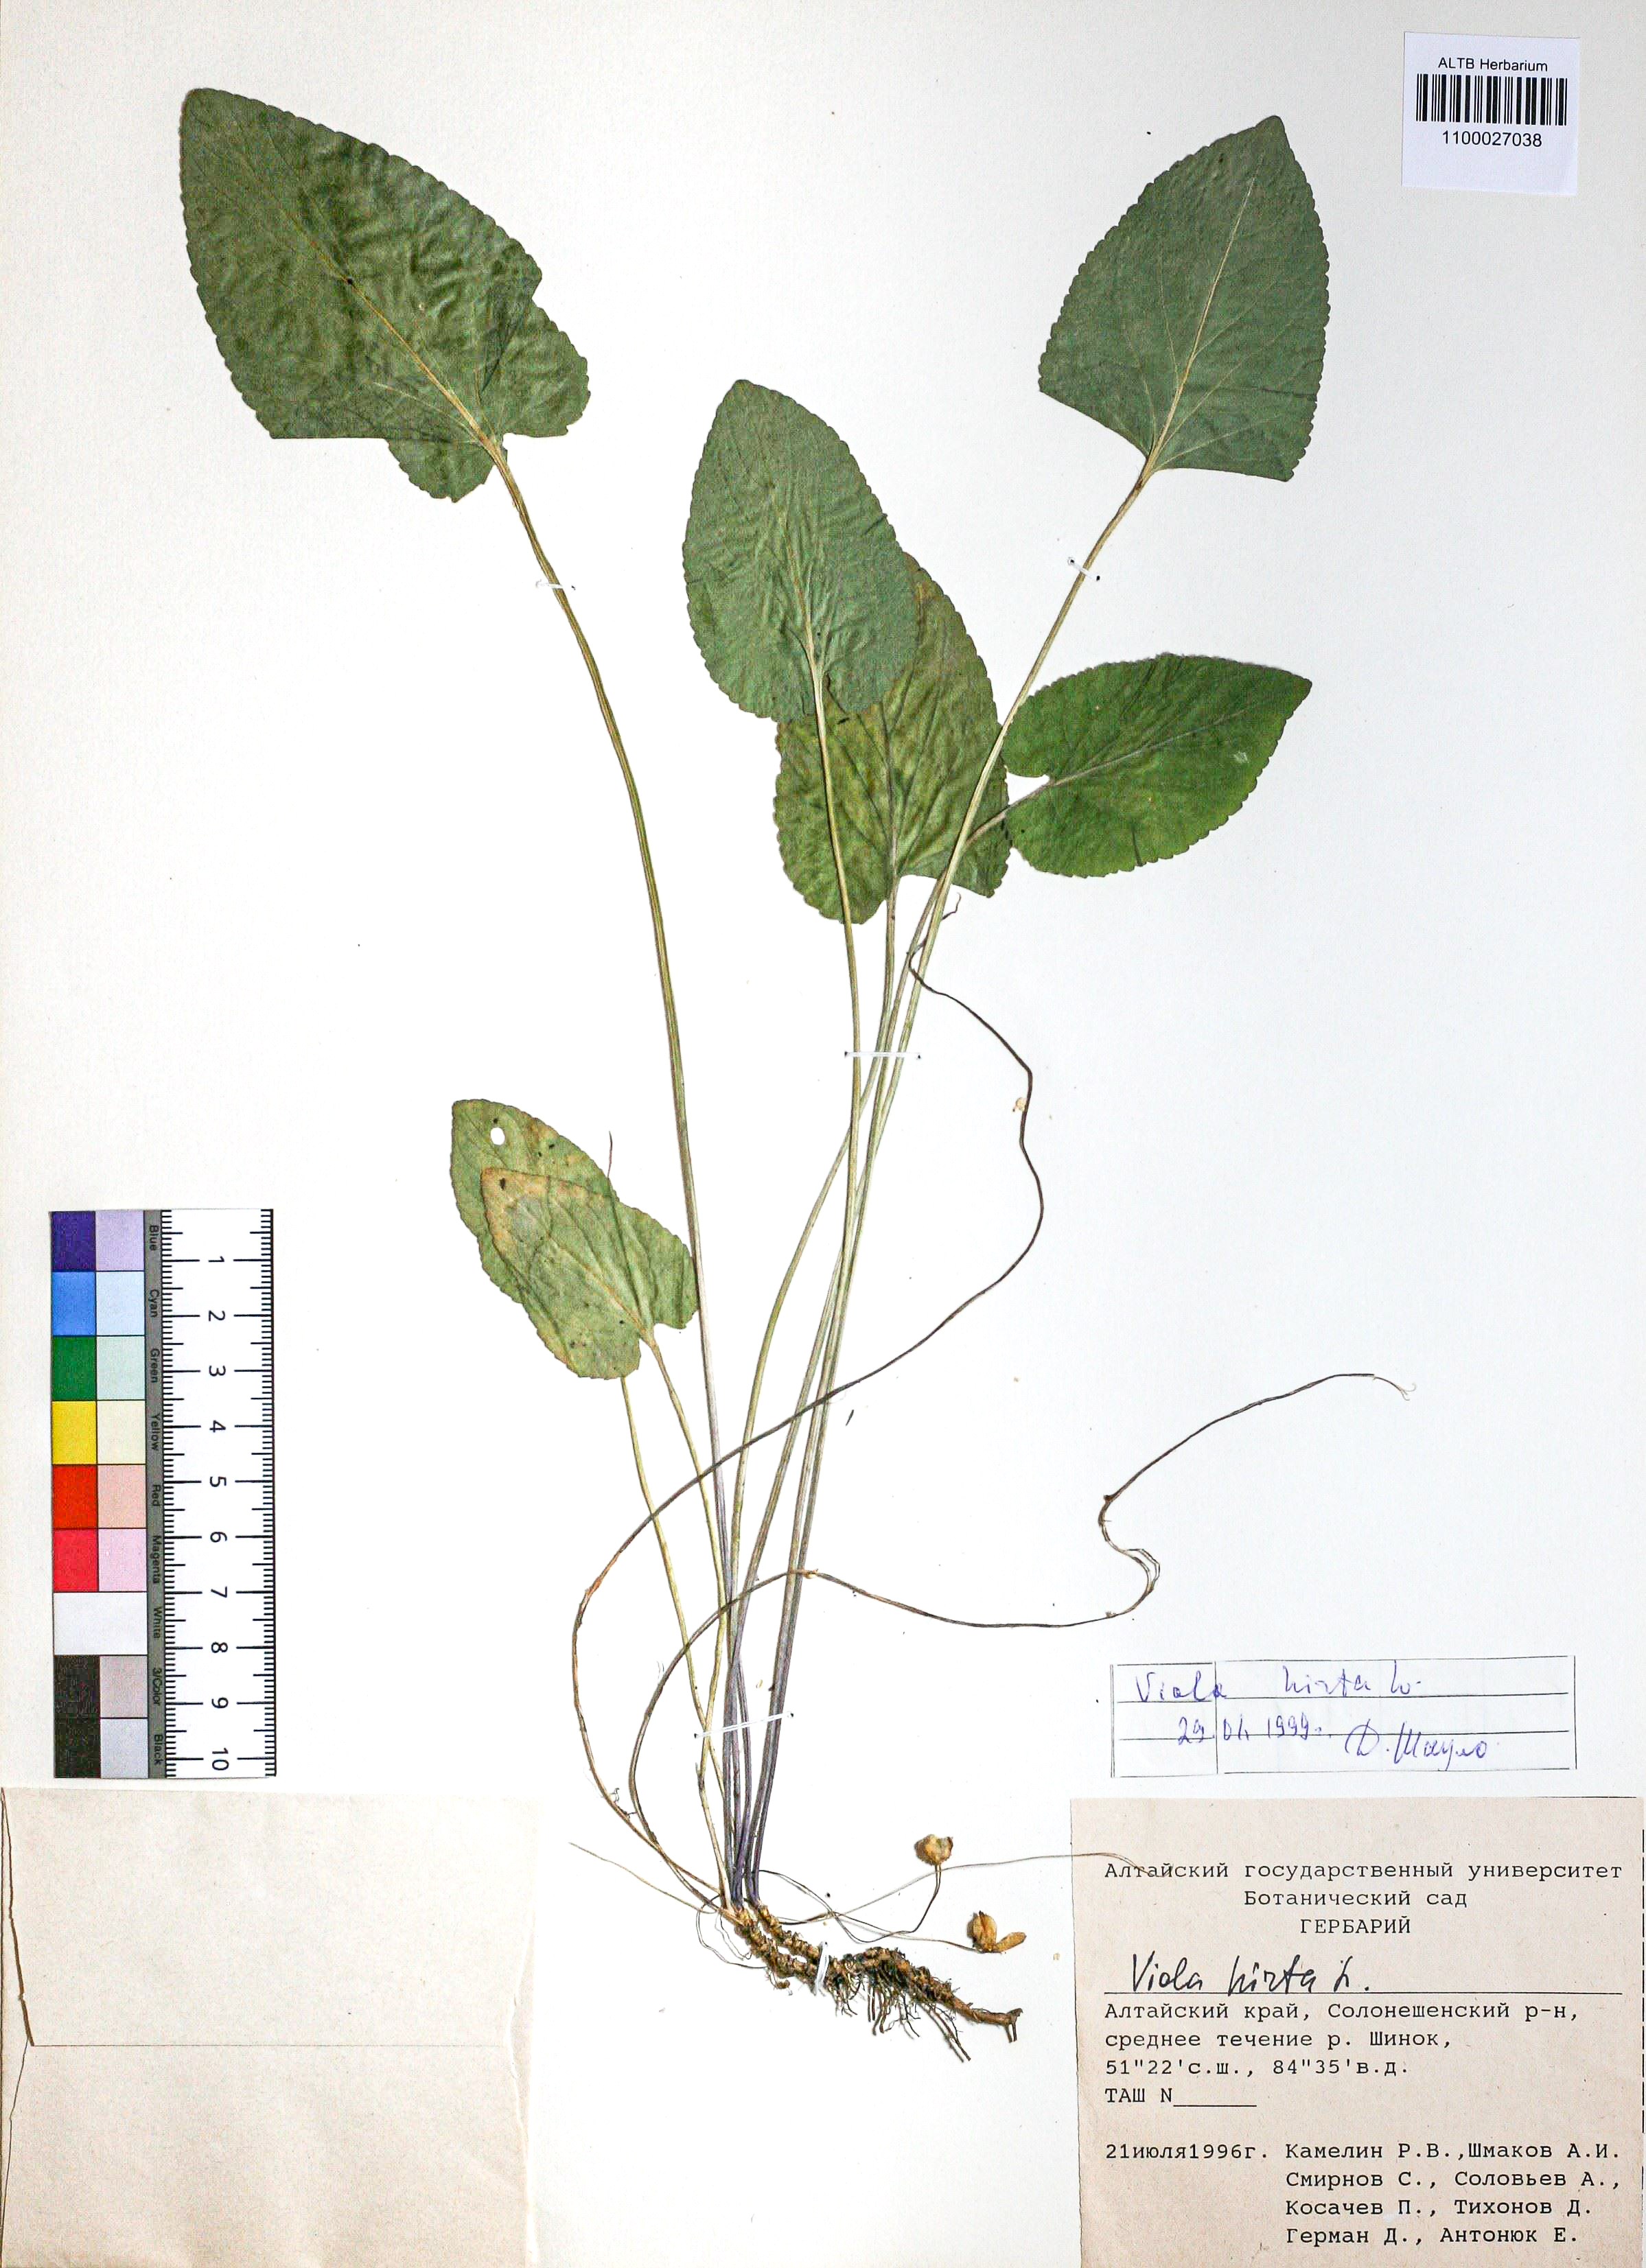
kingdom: Plantae
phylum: Tracheophyta
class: Magnoliopsida
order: Malpighiales
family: Violaceae
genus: Viola
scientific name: Viola hirta
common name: Hairy violet
